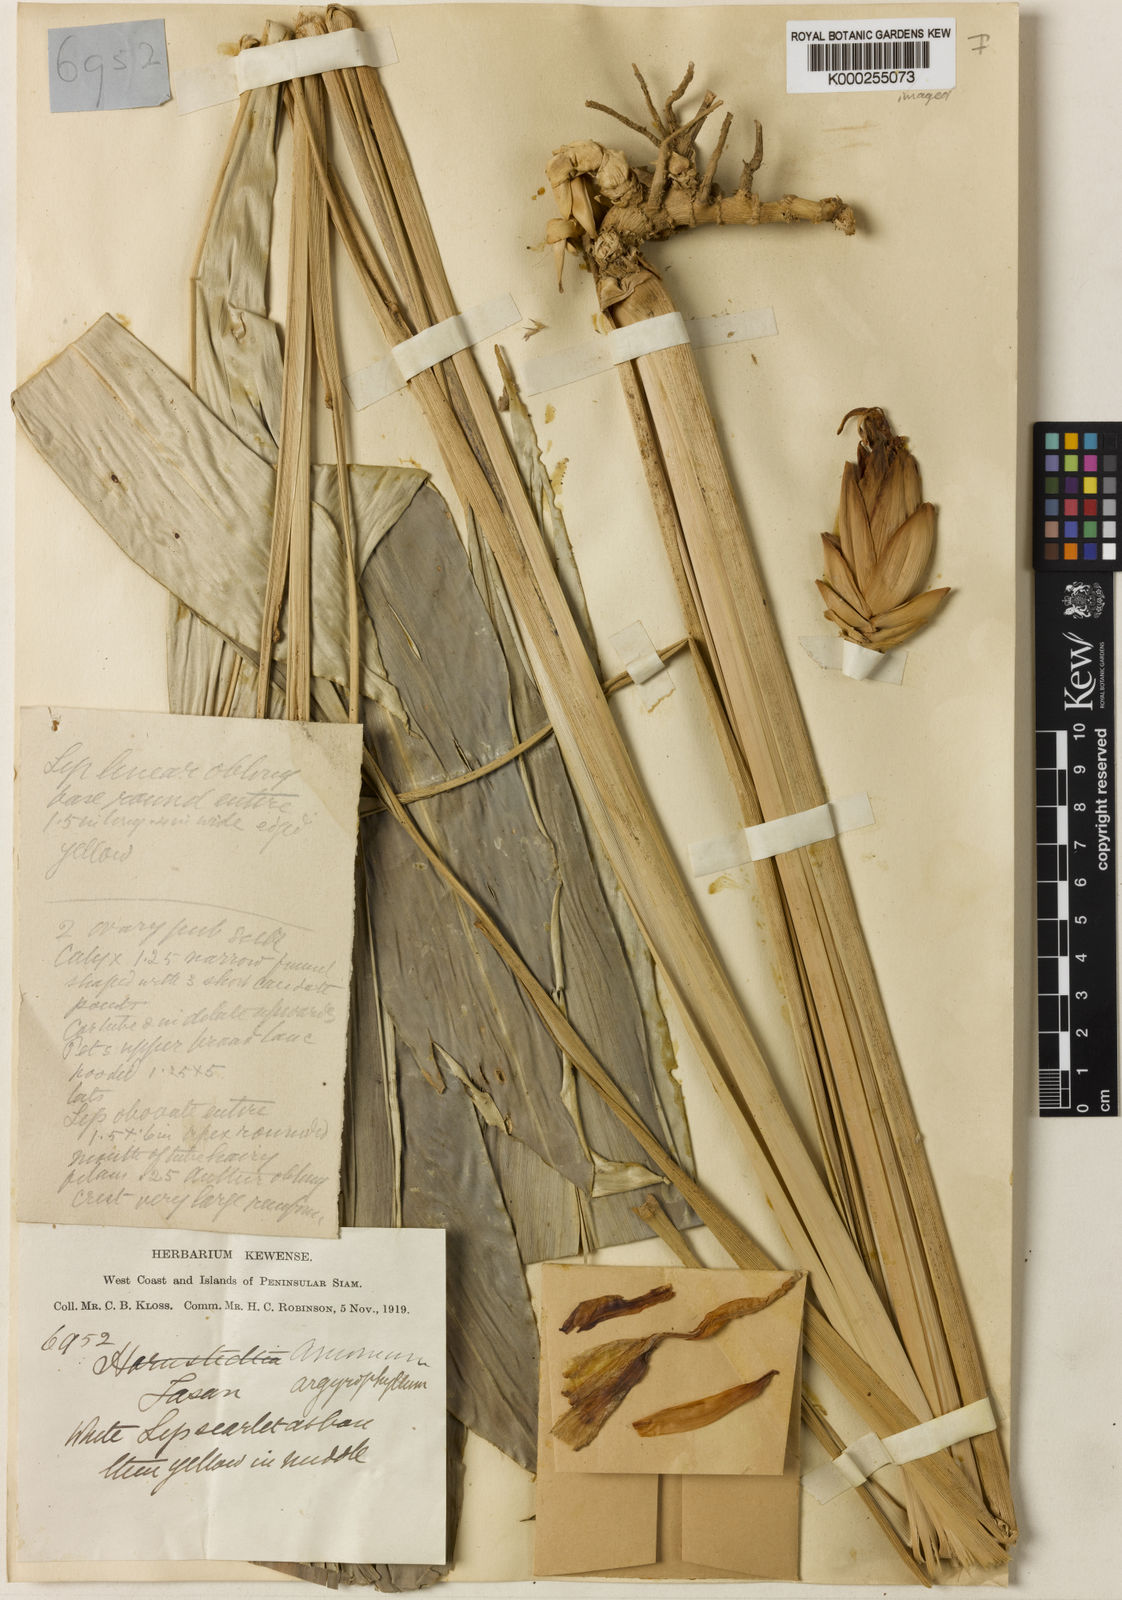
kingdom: Plantae
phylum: Tracheophyta
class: Liliopsida
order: Zingiberales
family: Zingiberaceae
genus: Amomum
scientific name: Amomum argyrophyllum
